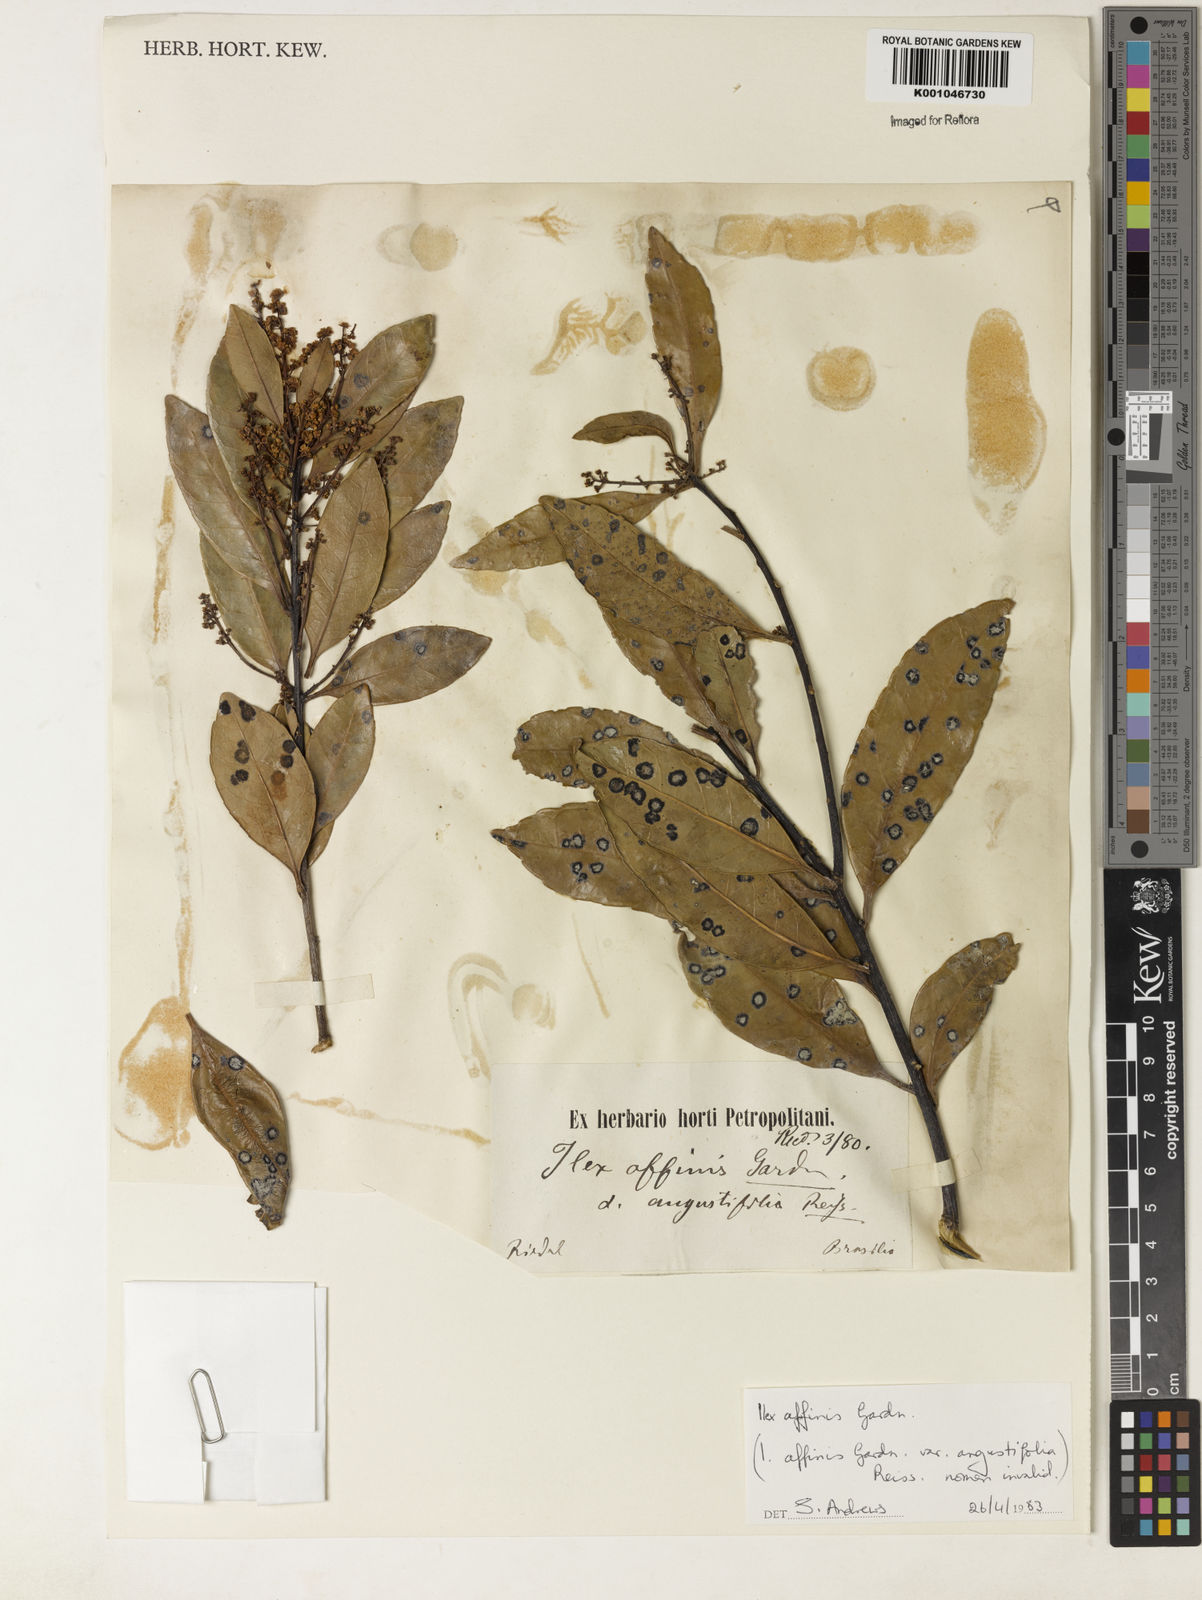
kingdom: Plantae
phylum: Tracheophyta
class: Magnoliopsida
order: Aquifoliales
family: Aquifoliaceae
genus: Ilex
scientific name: Ilex affinis
